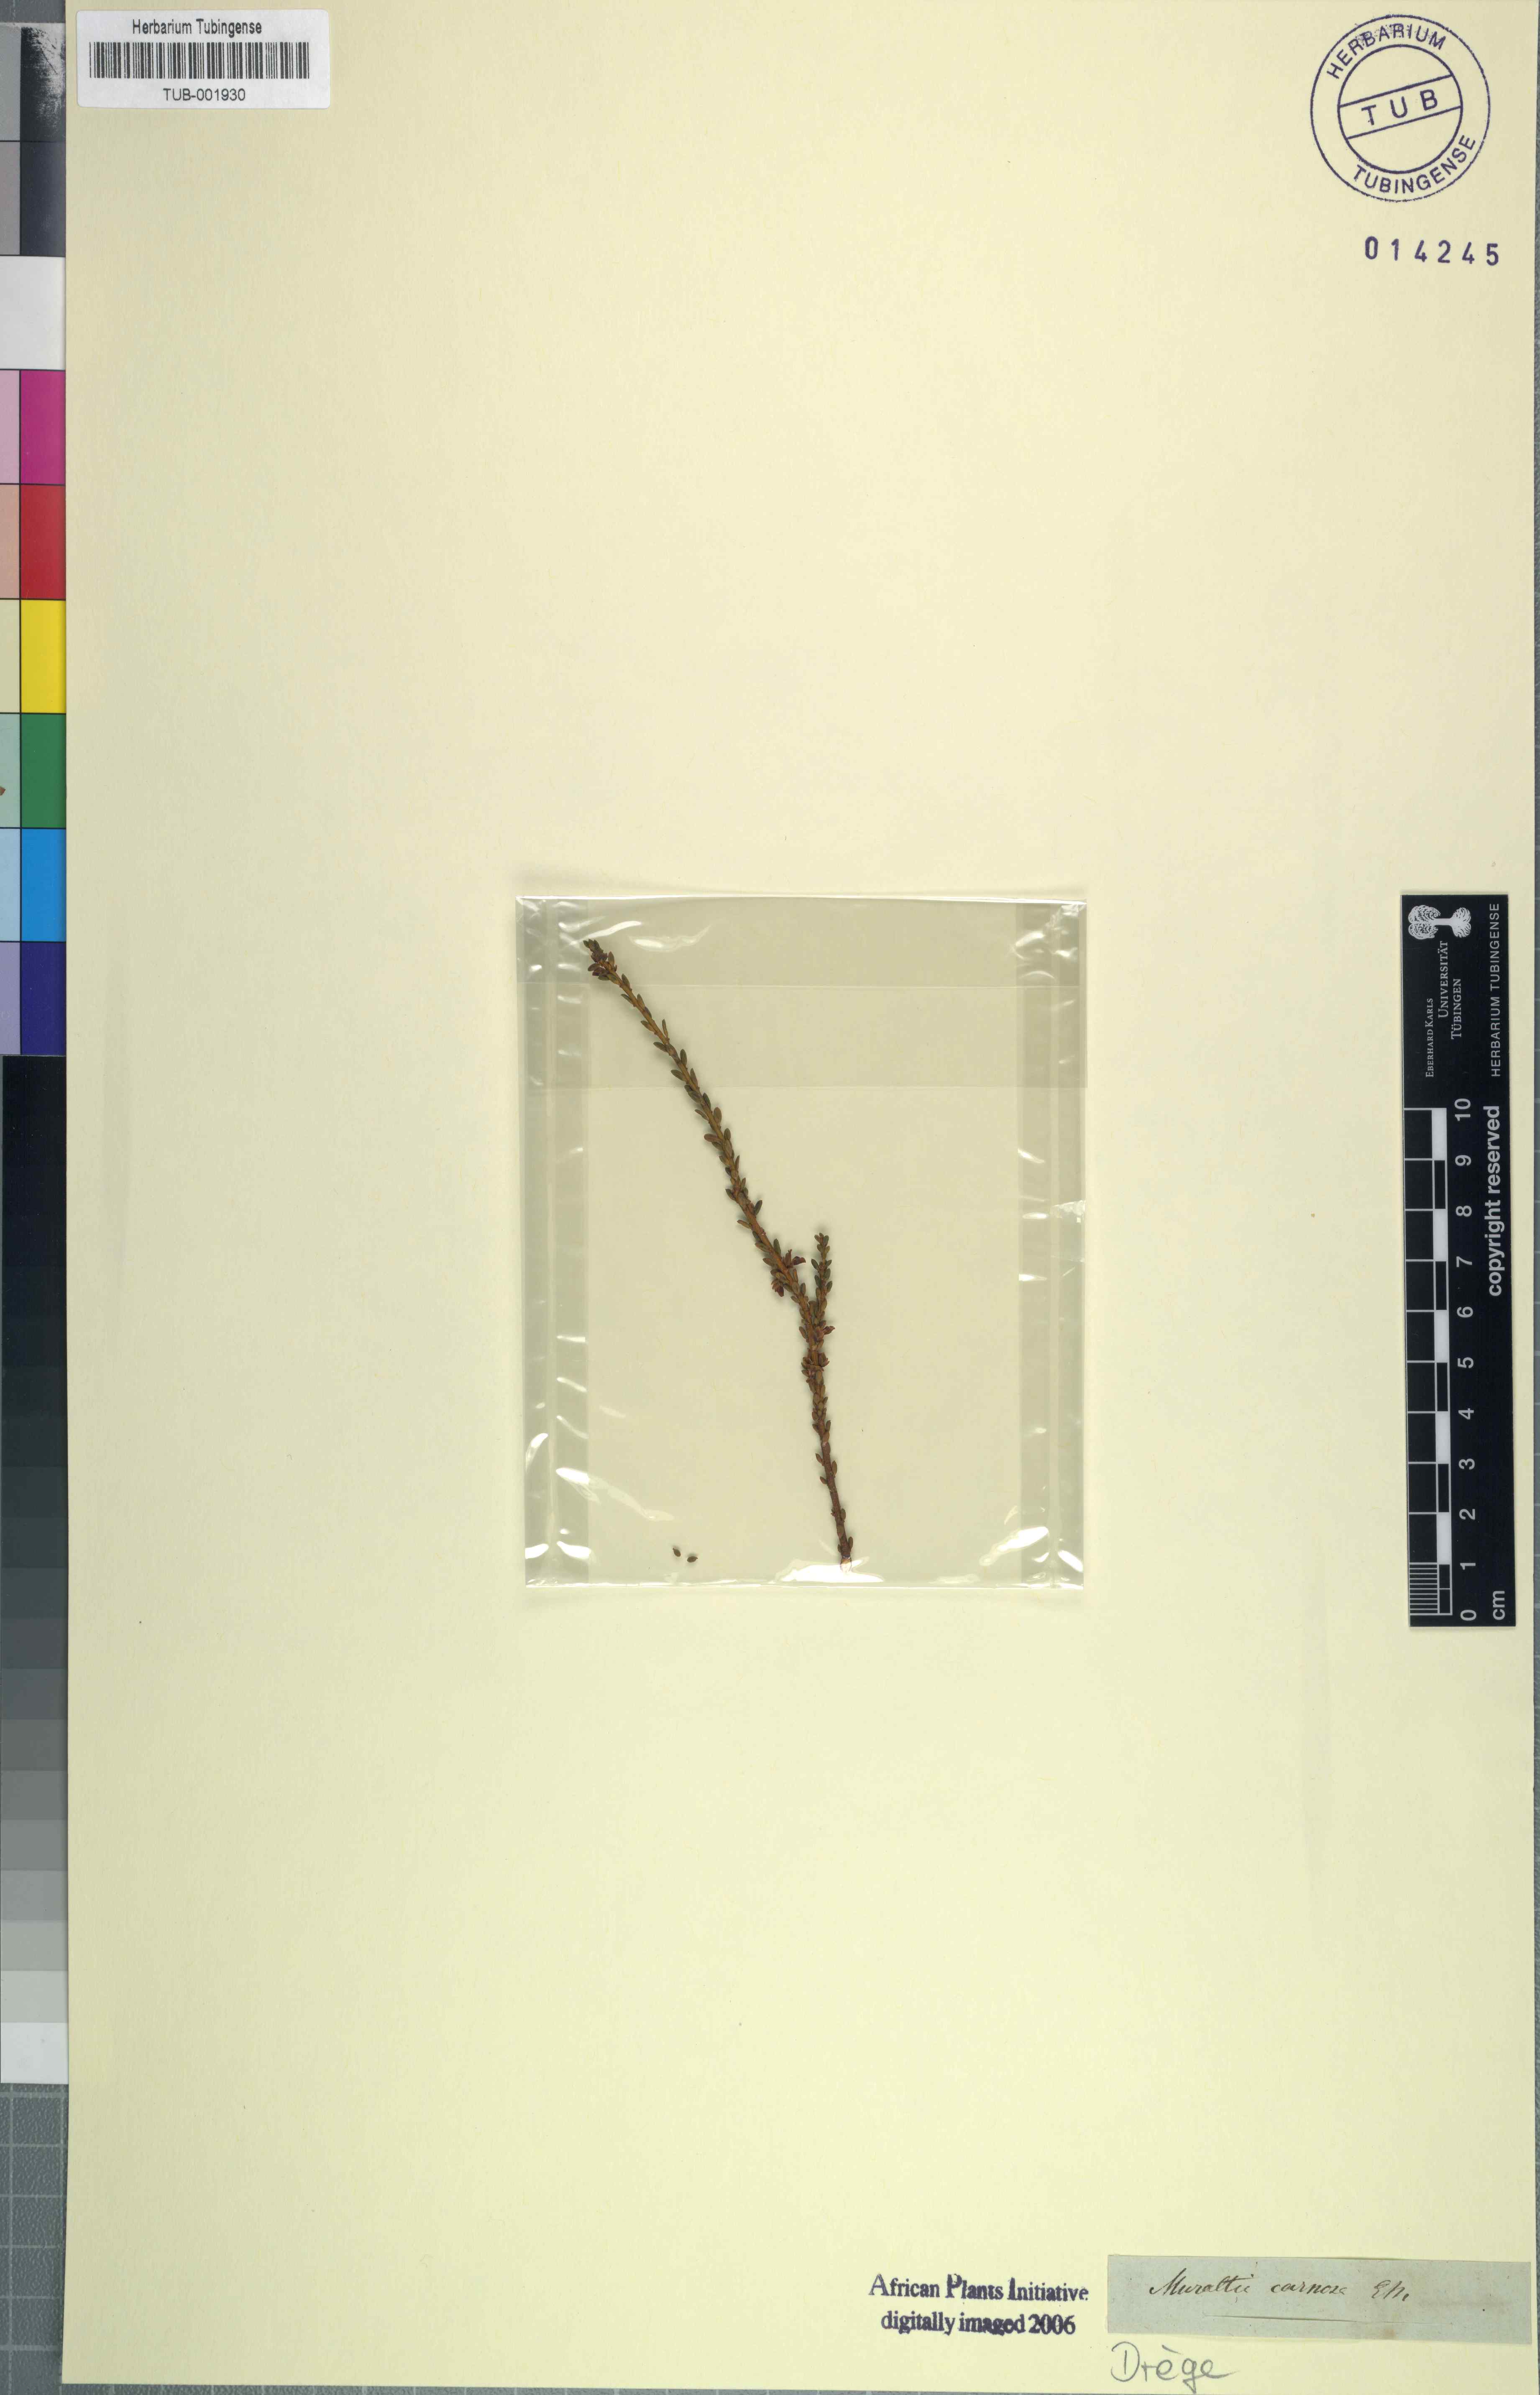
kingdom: Plantae
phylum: Tracheophyta
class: Magnoliopsida
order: Fabales
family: Polygalaceae
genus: Muraltia
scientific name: Muraltia carnosa
